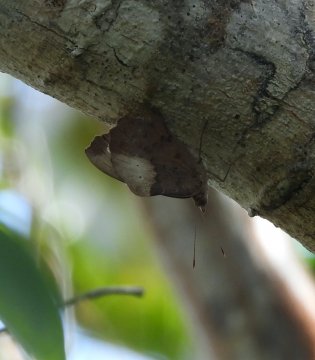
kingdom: Animalia
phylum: Arthropoda
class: Insecta
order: Lepidoptera
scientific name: Lepidoptera
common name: Butterflies
